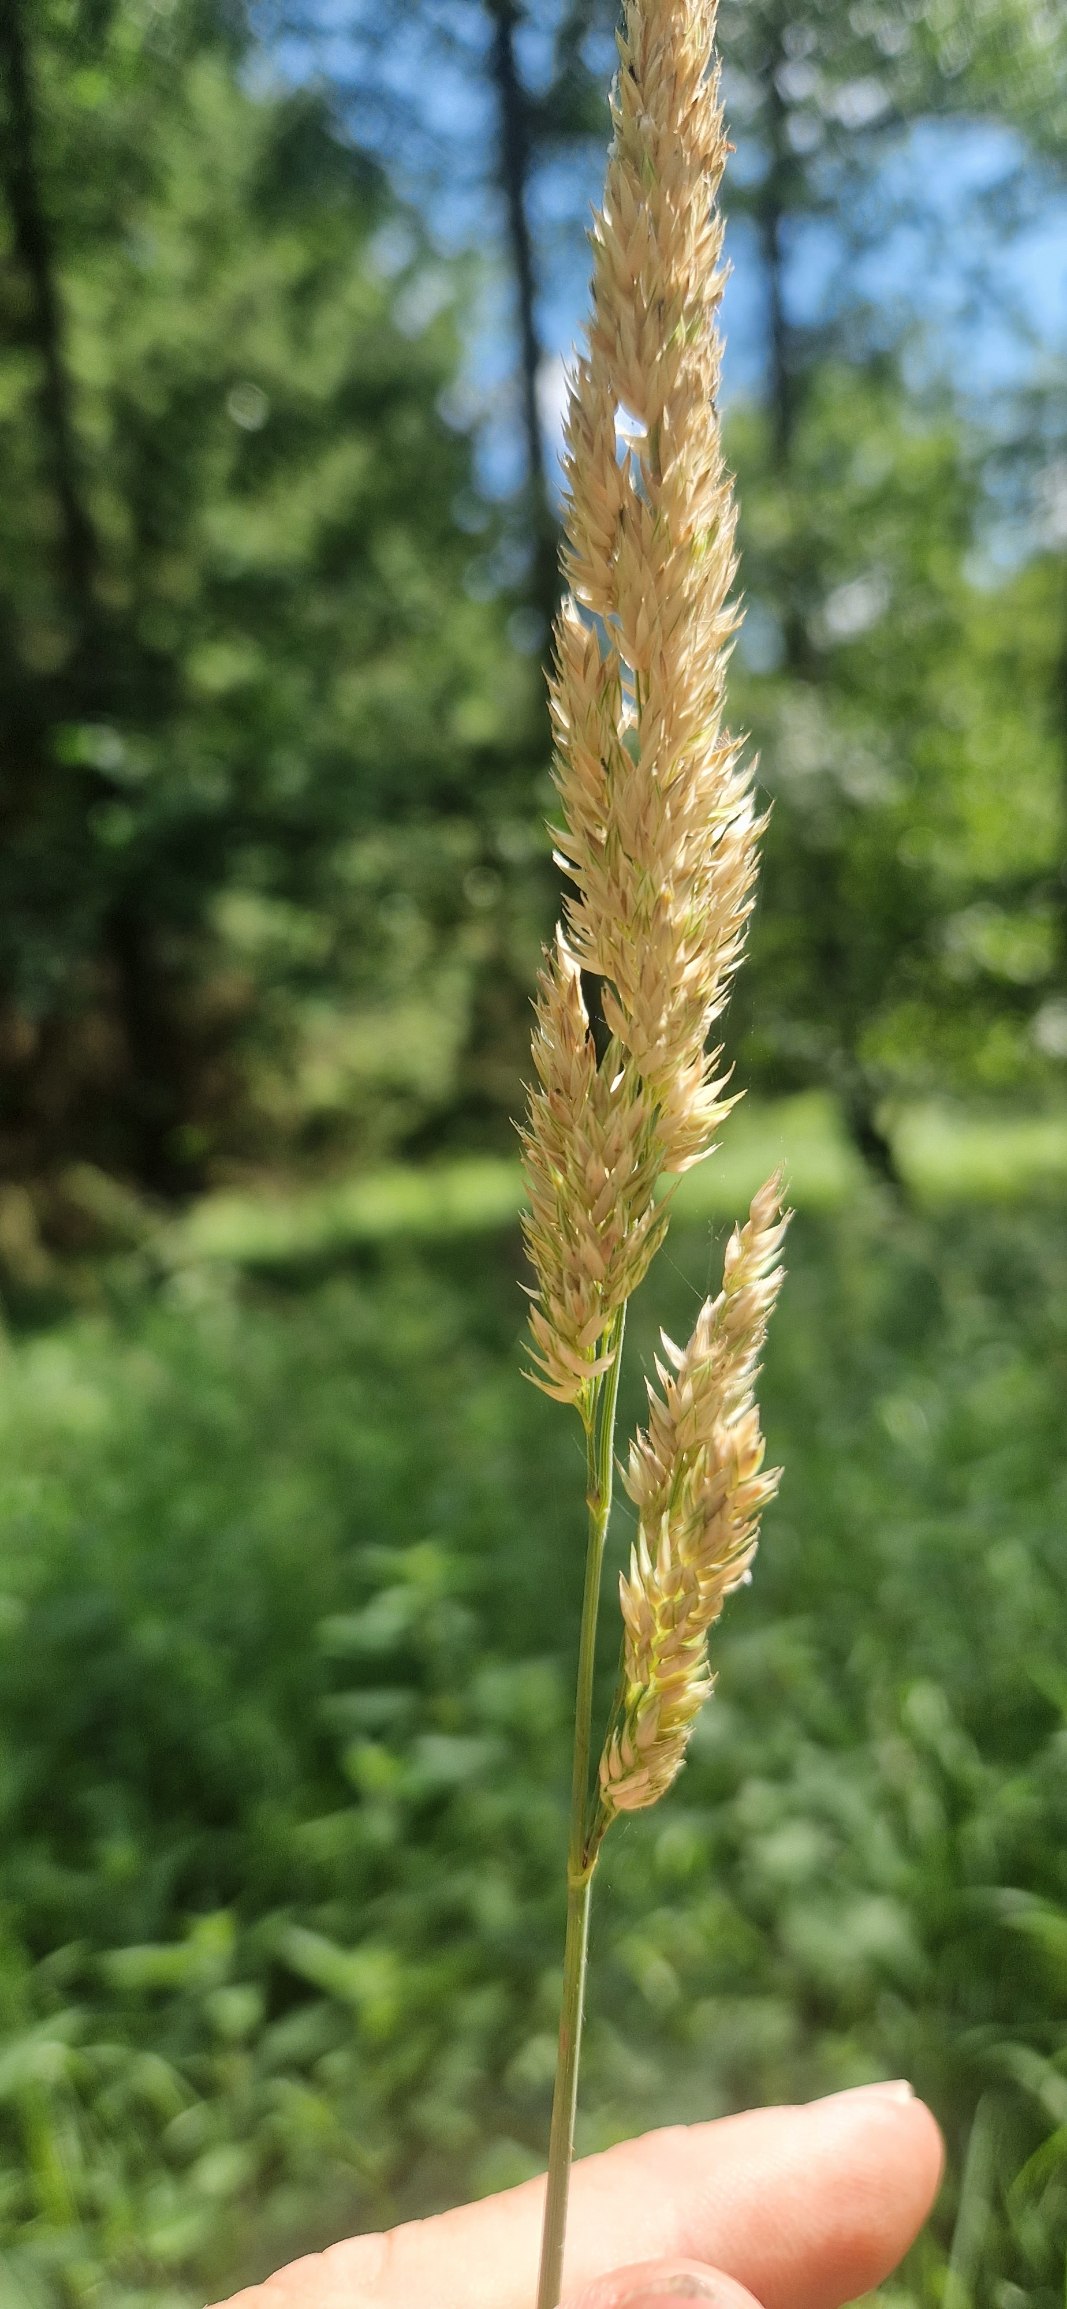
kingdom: Plantae
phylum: Tracheophyta
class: Liliopsida
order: Poales
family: Poaceae
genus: Phalaris
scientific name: Phalaris arundinacea
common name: Rørgræs
